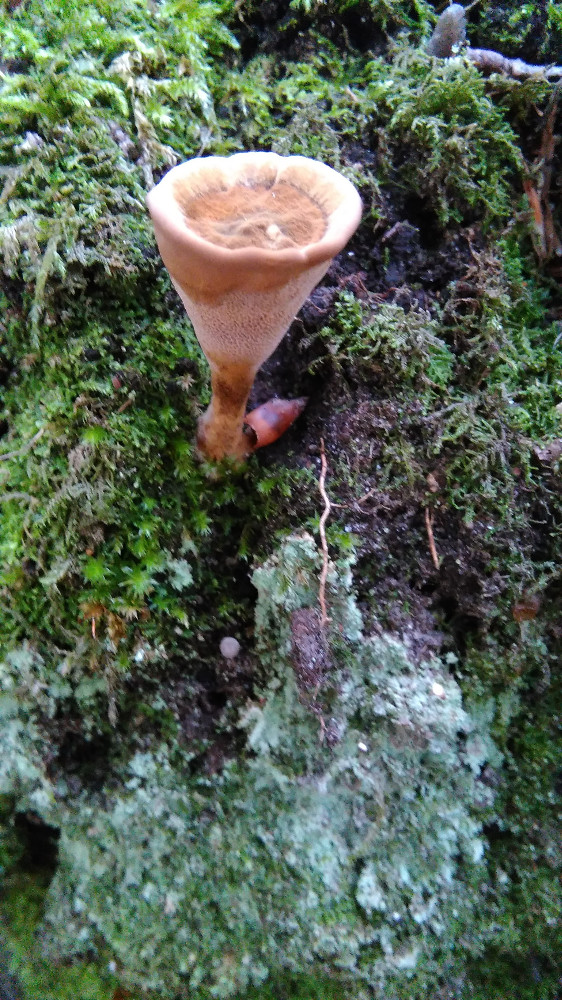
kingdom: Fungi
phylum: Basidiomycota
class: Agaricomycetes
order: Hymenochaetales
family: Hymenochaetaceae
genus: Coltricia
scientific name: Coltricia perennis
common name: almindelig sandporesvamp
